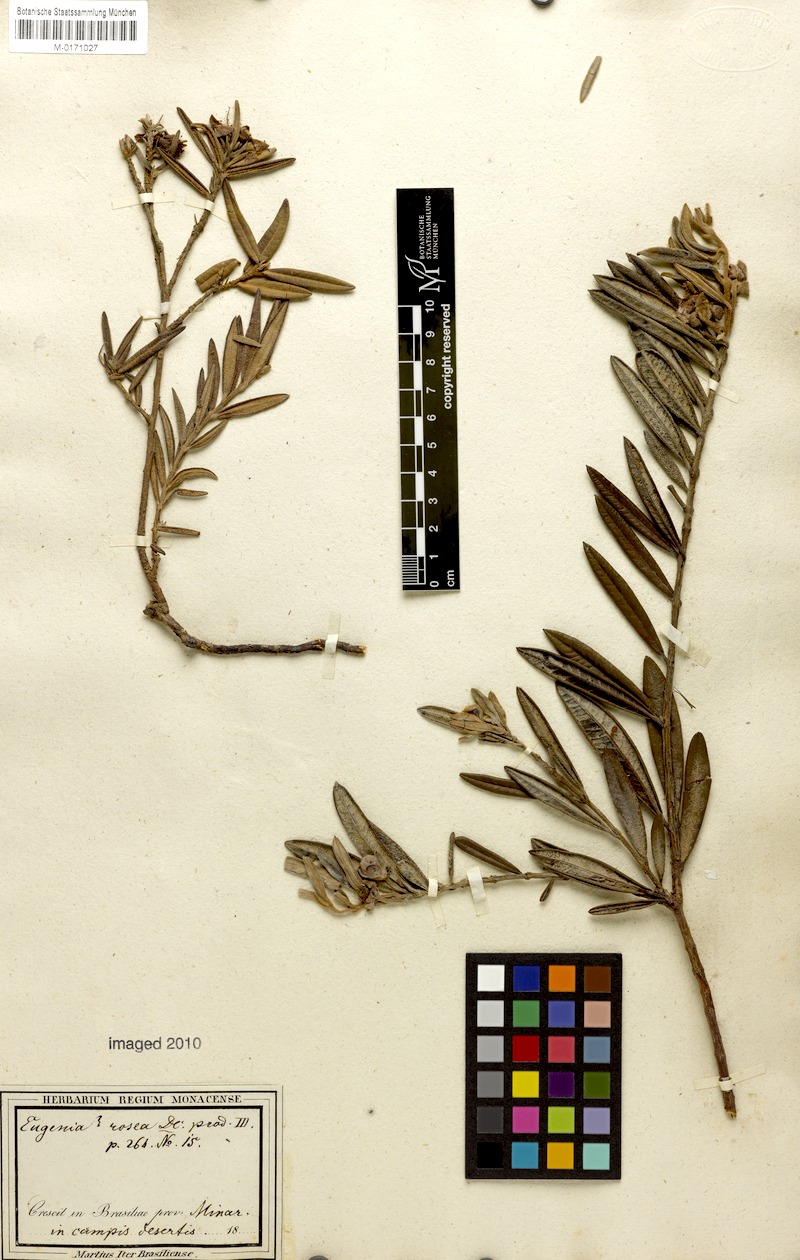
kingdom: Plantae
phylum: Tracheophyta
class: Magnoliopsida
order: Myrtales
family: Myrtaceae
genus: Eugenia
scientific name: Eugenia rosea
